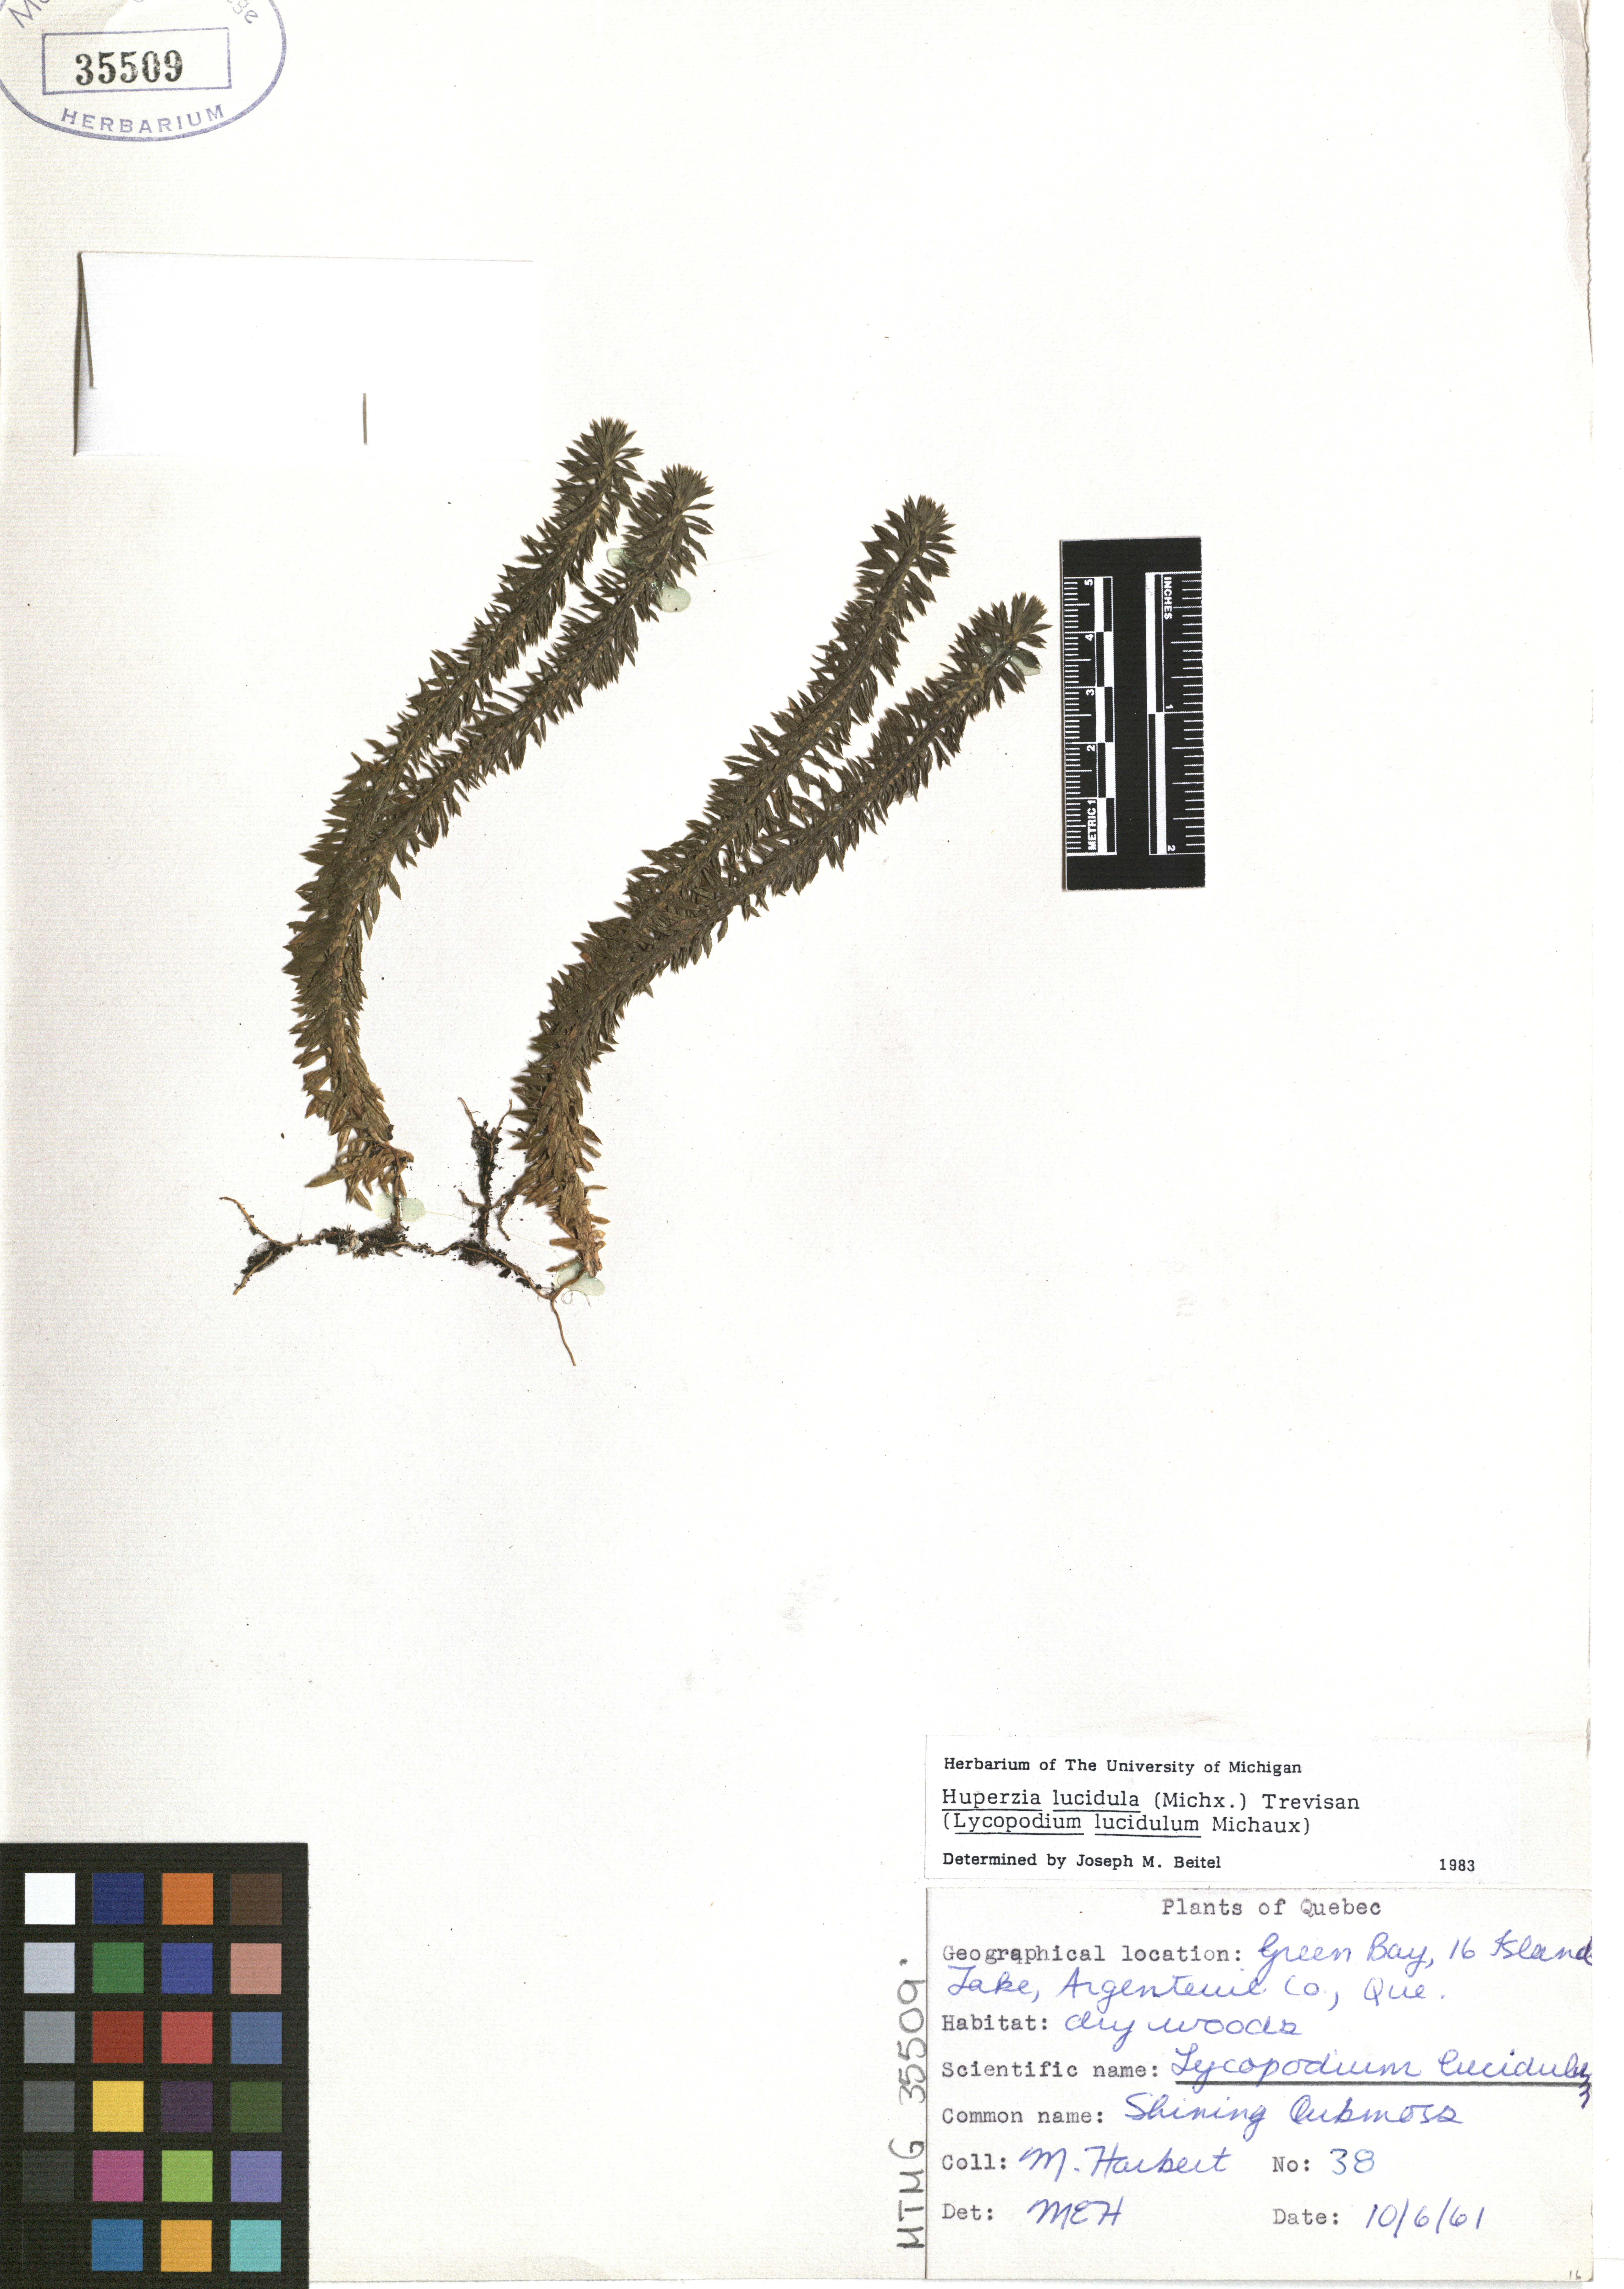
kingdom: Plantae
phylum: Tracheophyta
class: Lycopodiopsida
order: Lycopodiales
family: Lycopodiaceae
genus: Huperzia
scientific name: Huperzia lucidula
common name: Shining clubmoss
